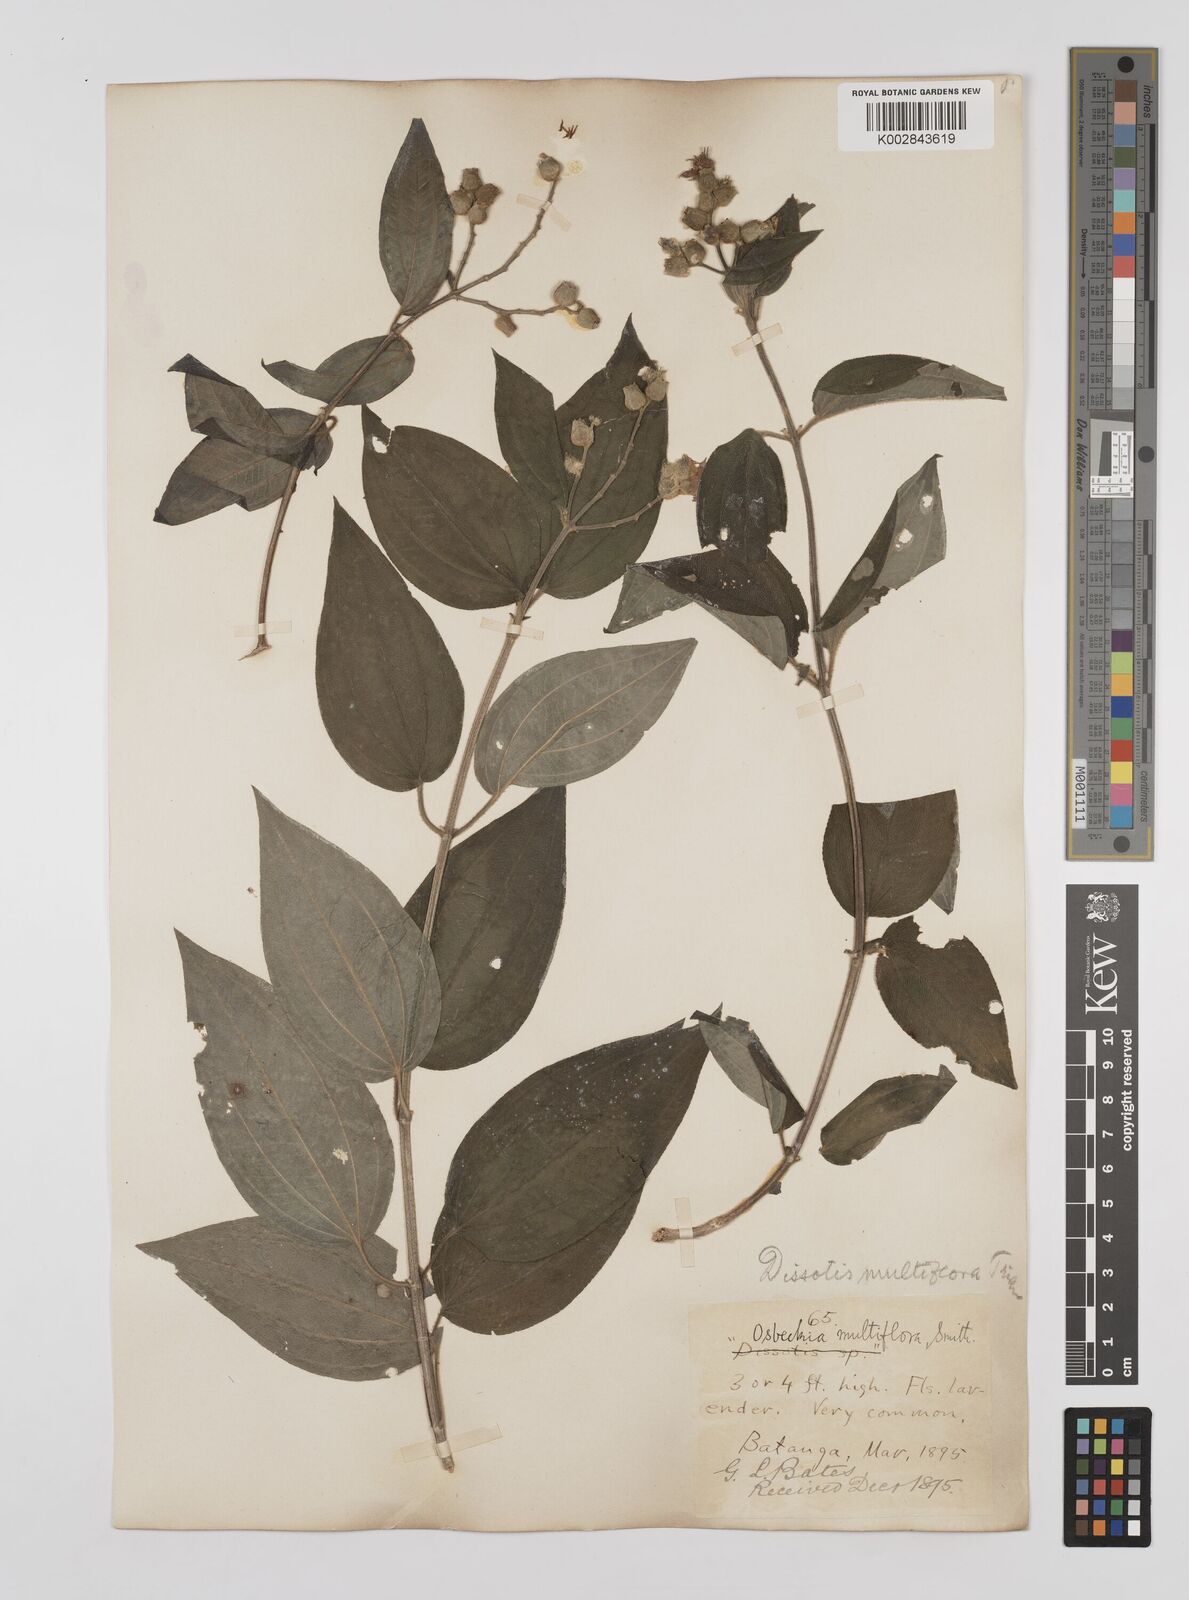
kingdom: Plantae
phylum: Tracheophyta
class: Magnoliopsida
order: Myrtales
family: Melastomataceae
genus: Dupineta
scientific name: Dupineta multiflora
